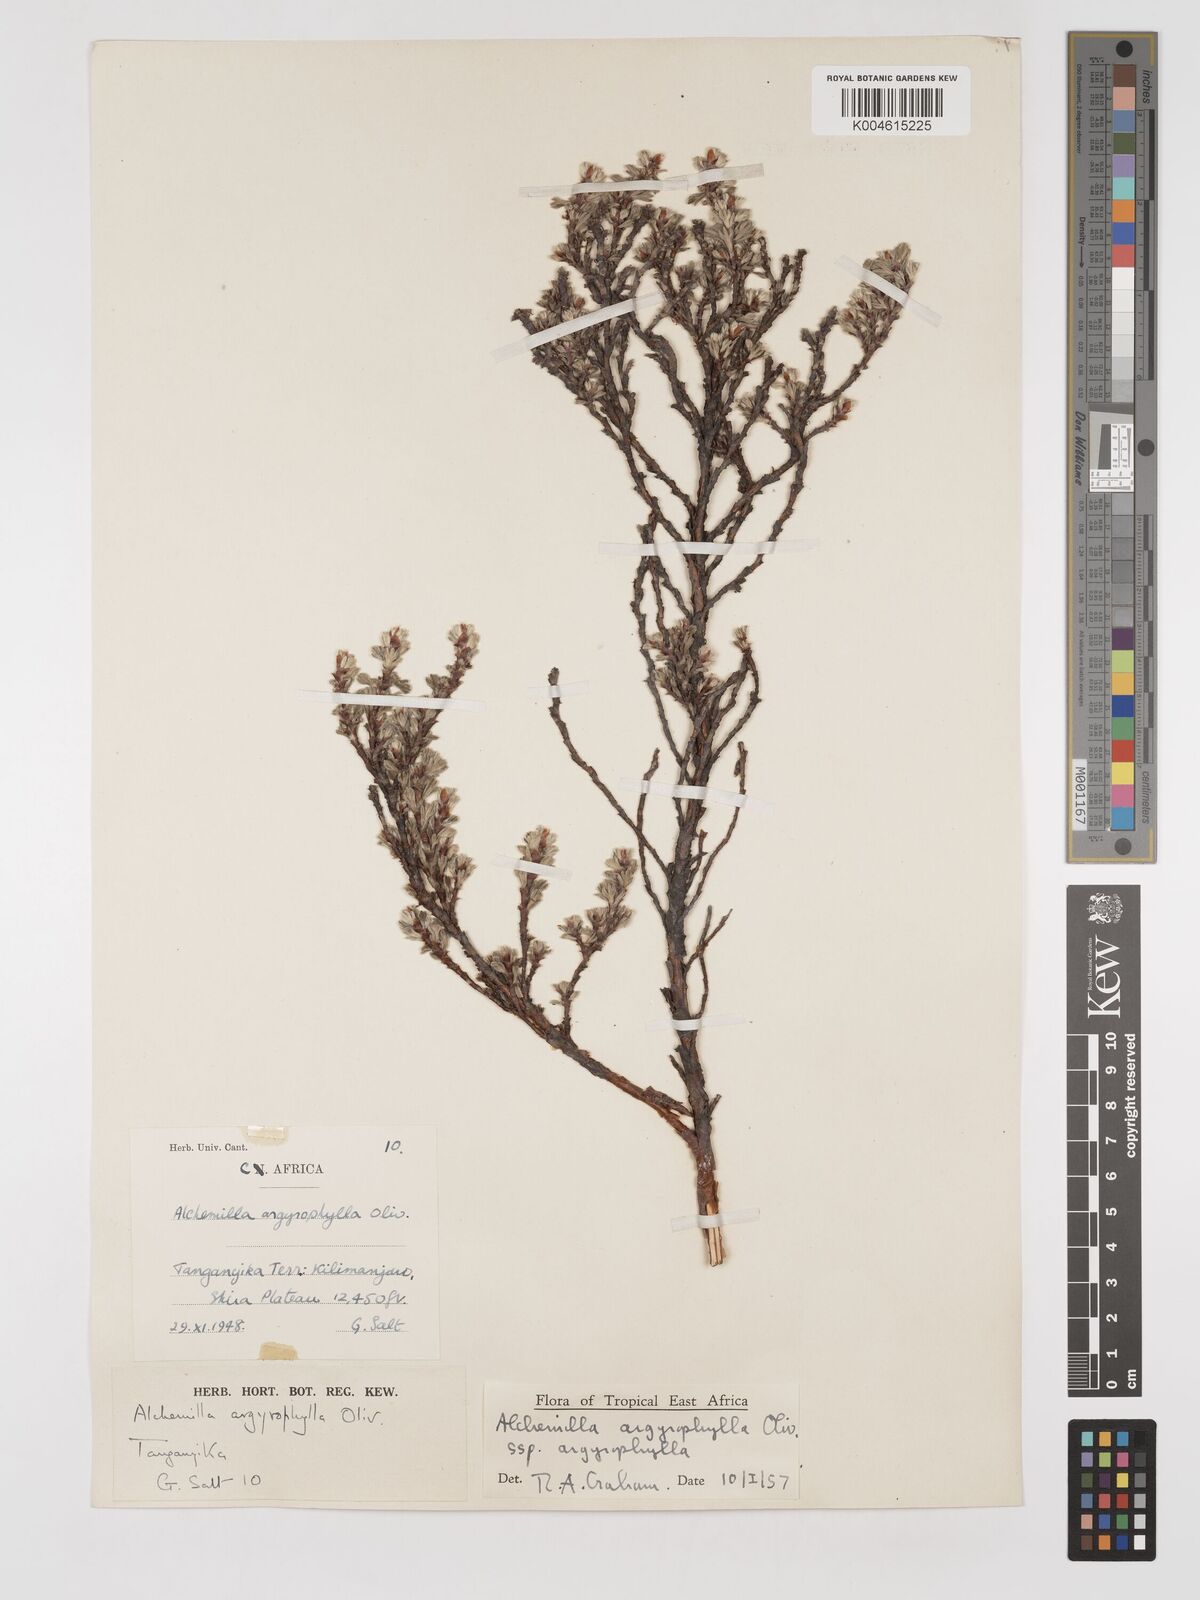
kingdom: Plantae
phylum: Tracheophyta
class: Magnoliopsida
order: Rosales
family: Rosaceae
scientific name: Rosaceae
